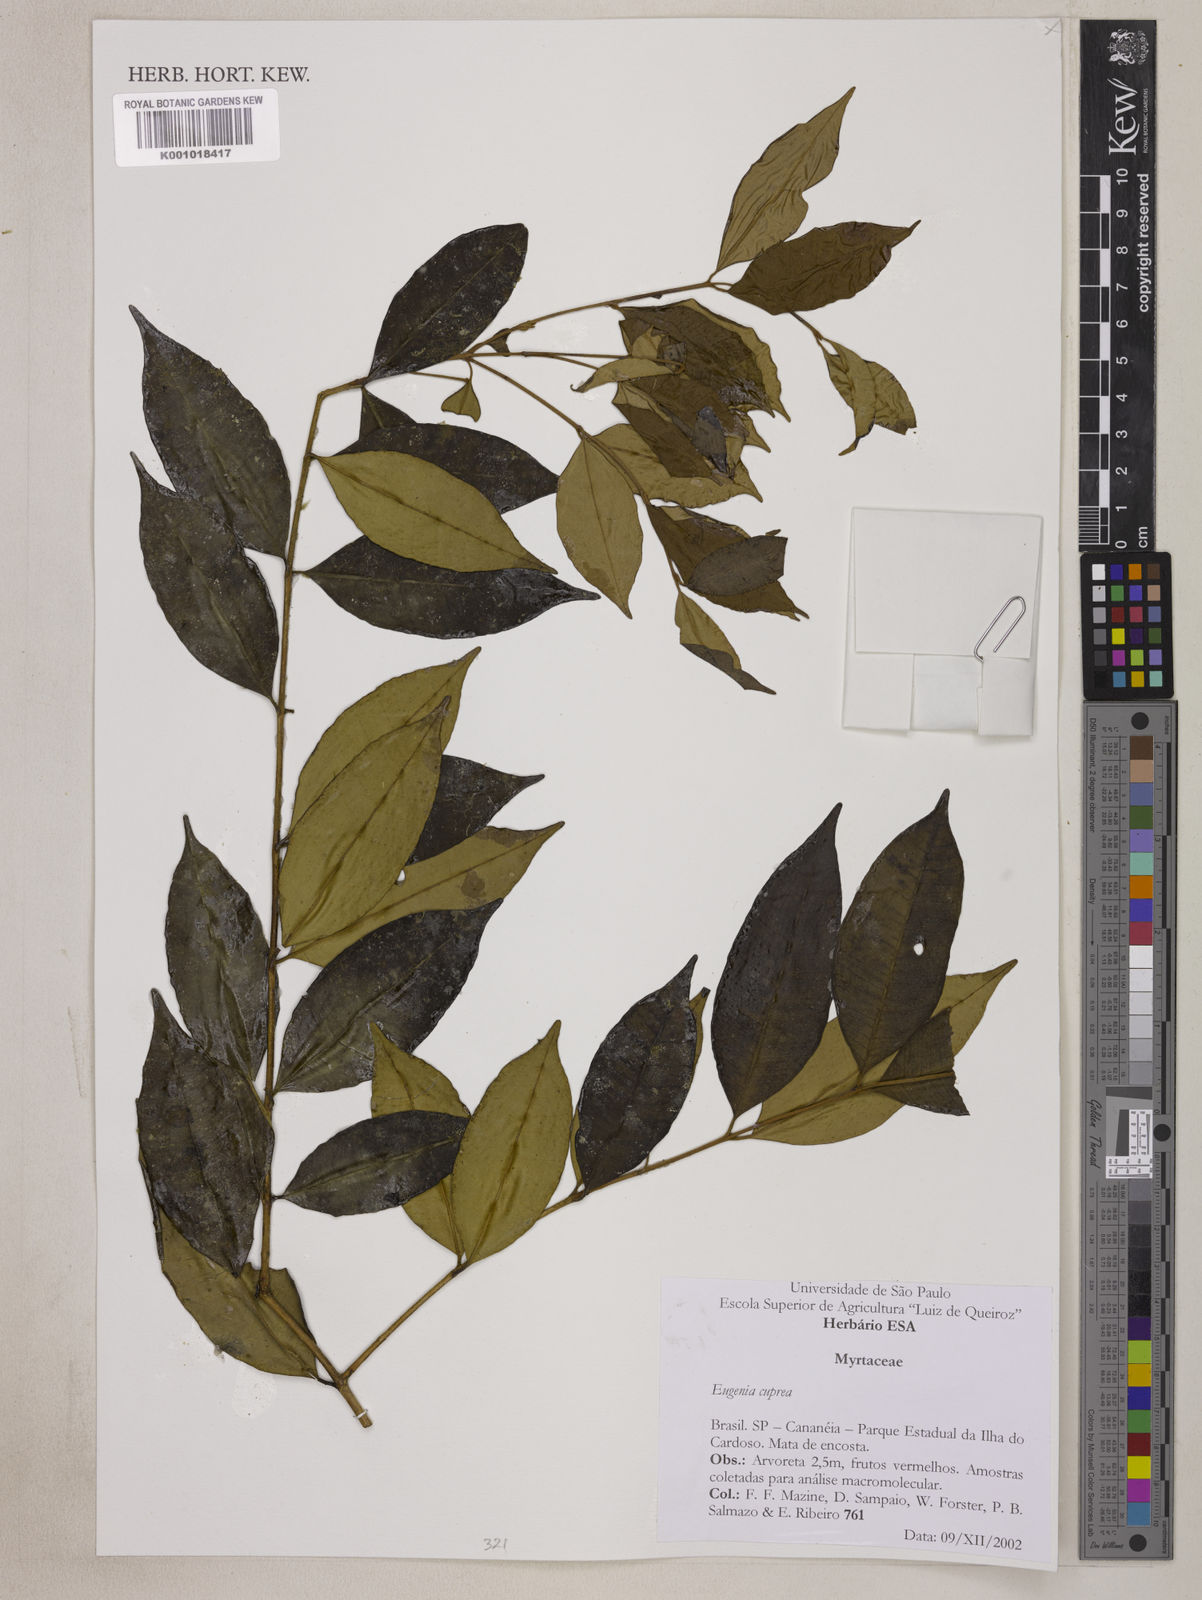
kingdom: Plantae
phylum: Tracheophyta
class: Magnoliopsida
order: Myrtales
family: Myrtaceae
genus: Eugenia
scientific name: Eugenia cuprea
